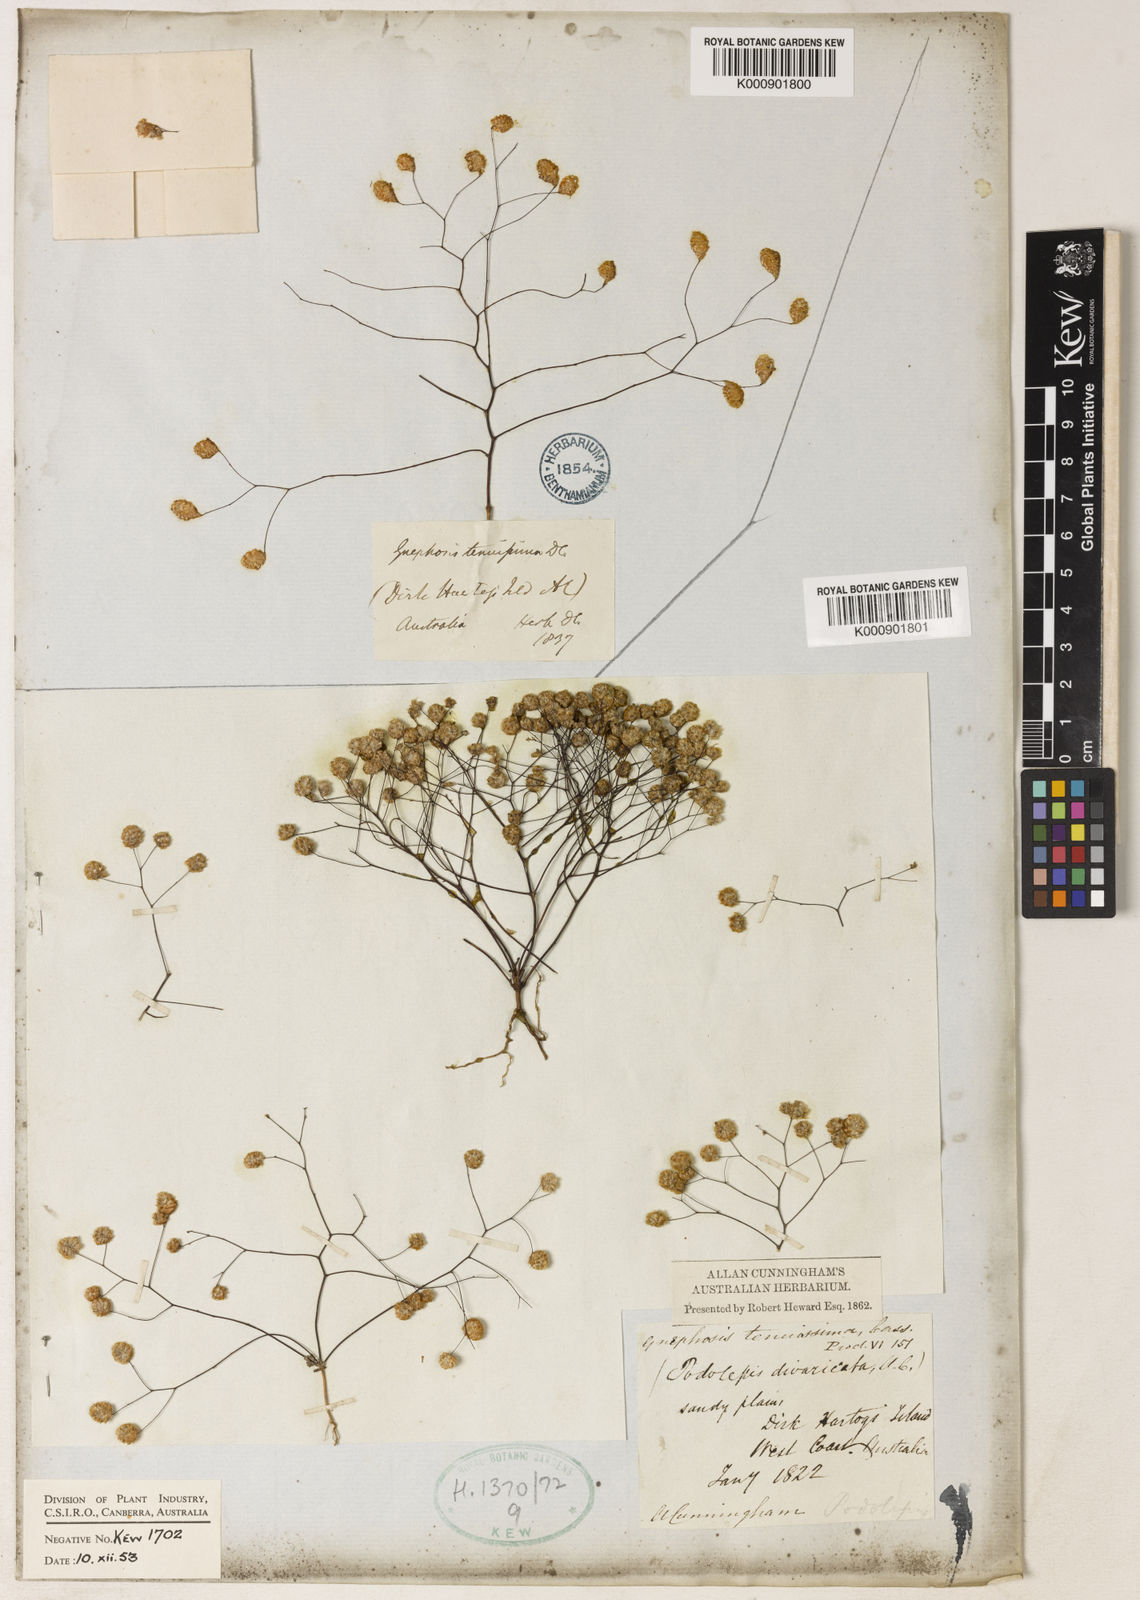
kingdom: Plantae
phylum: Tracheophyta
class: Magnoliopsida
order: Asterales
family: Asteraceae
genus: Gnephosis
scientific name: Gnephosis
